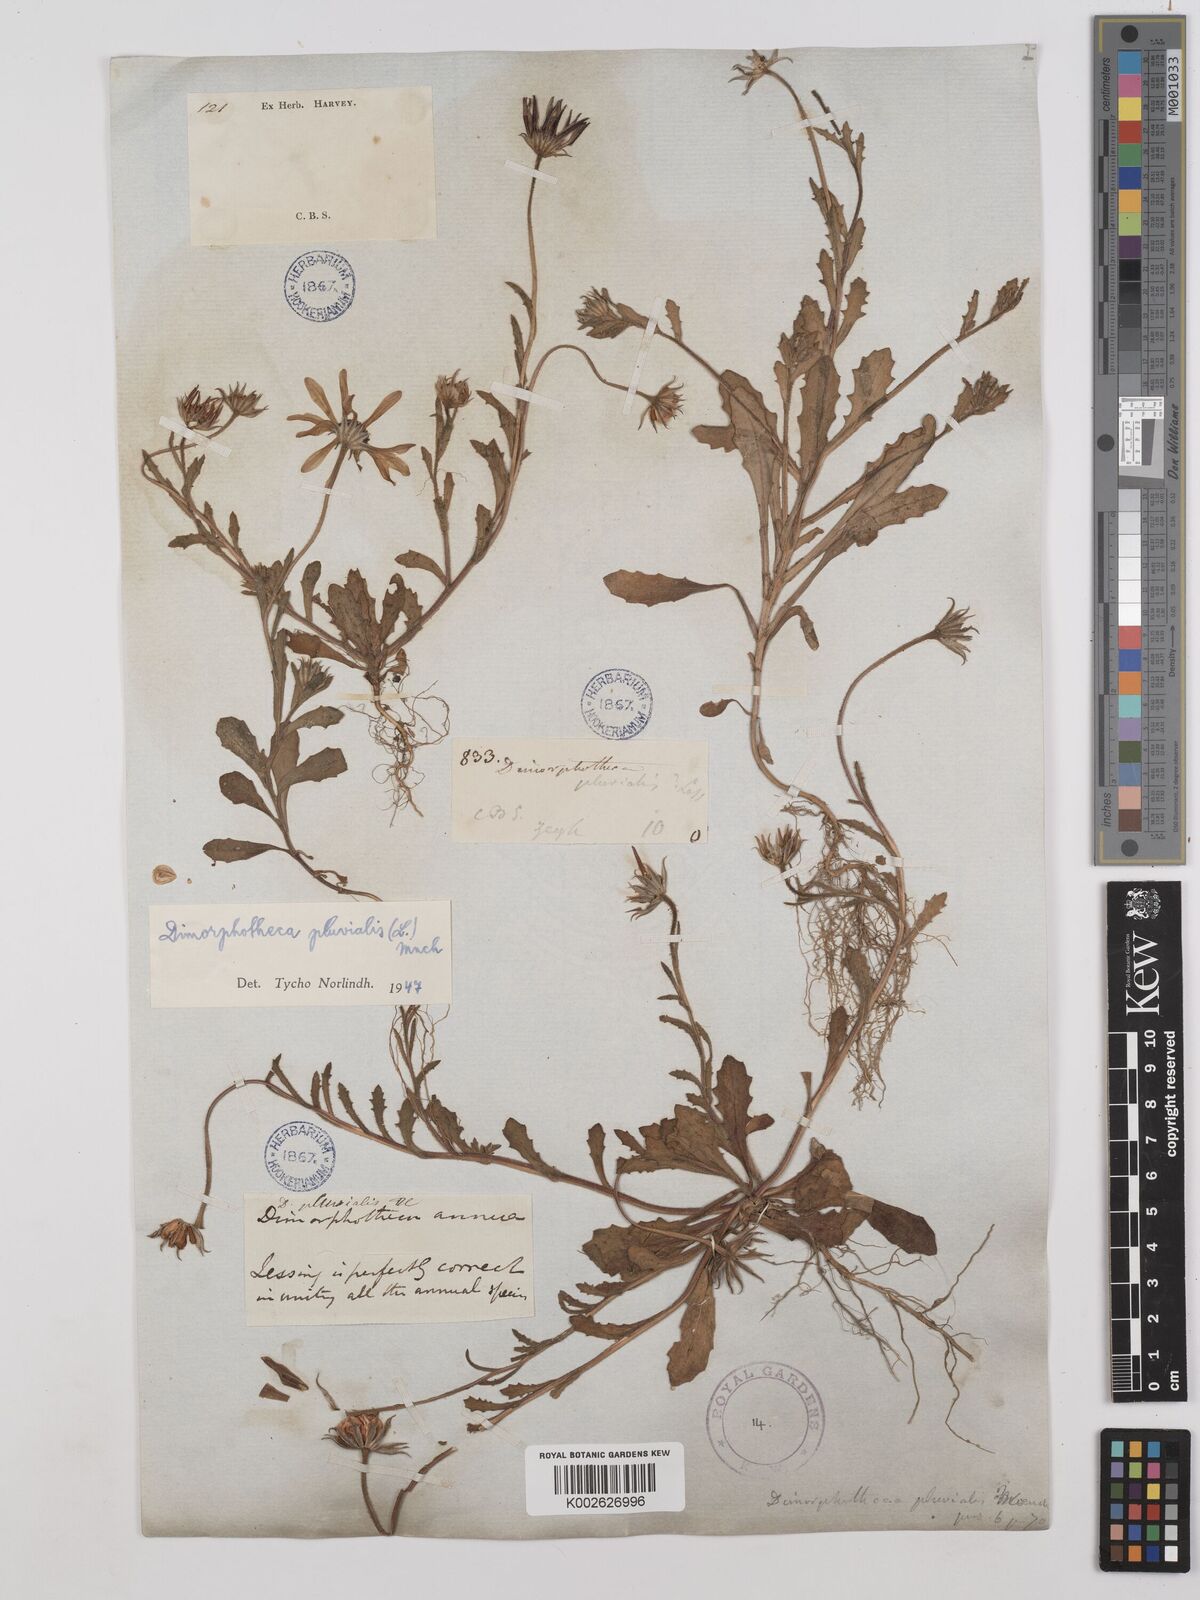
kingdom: Plantae
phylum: Tracheophyta
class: Magnoliopsida
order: Asterales
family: Asteraceae
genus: Dimorphotheca
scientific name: Dimorphotheca pluvialis
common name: Weather prophet
